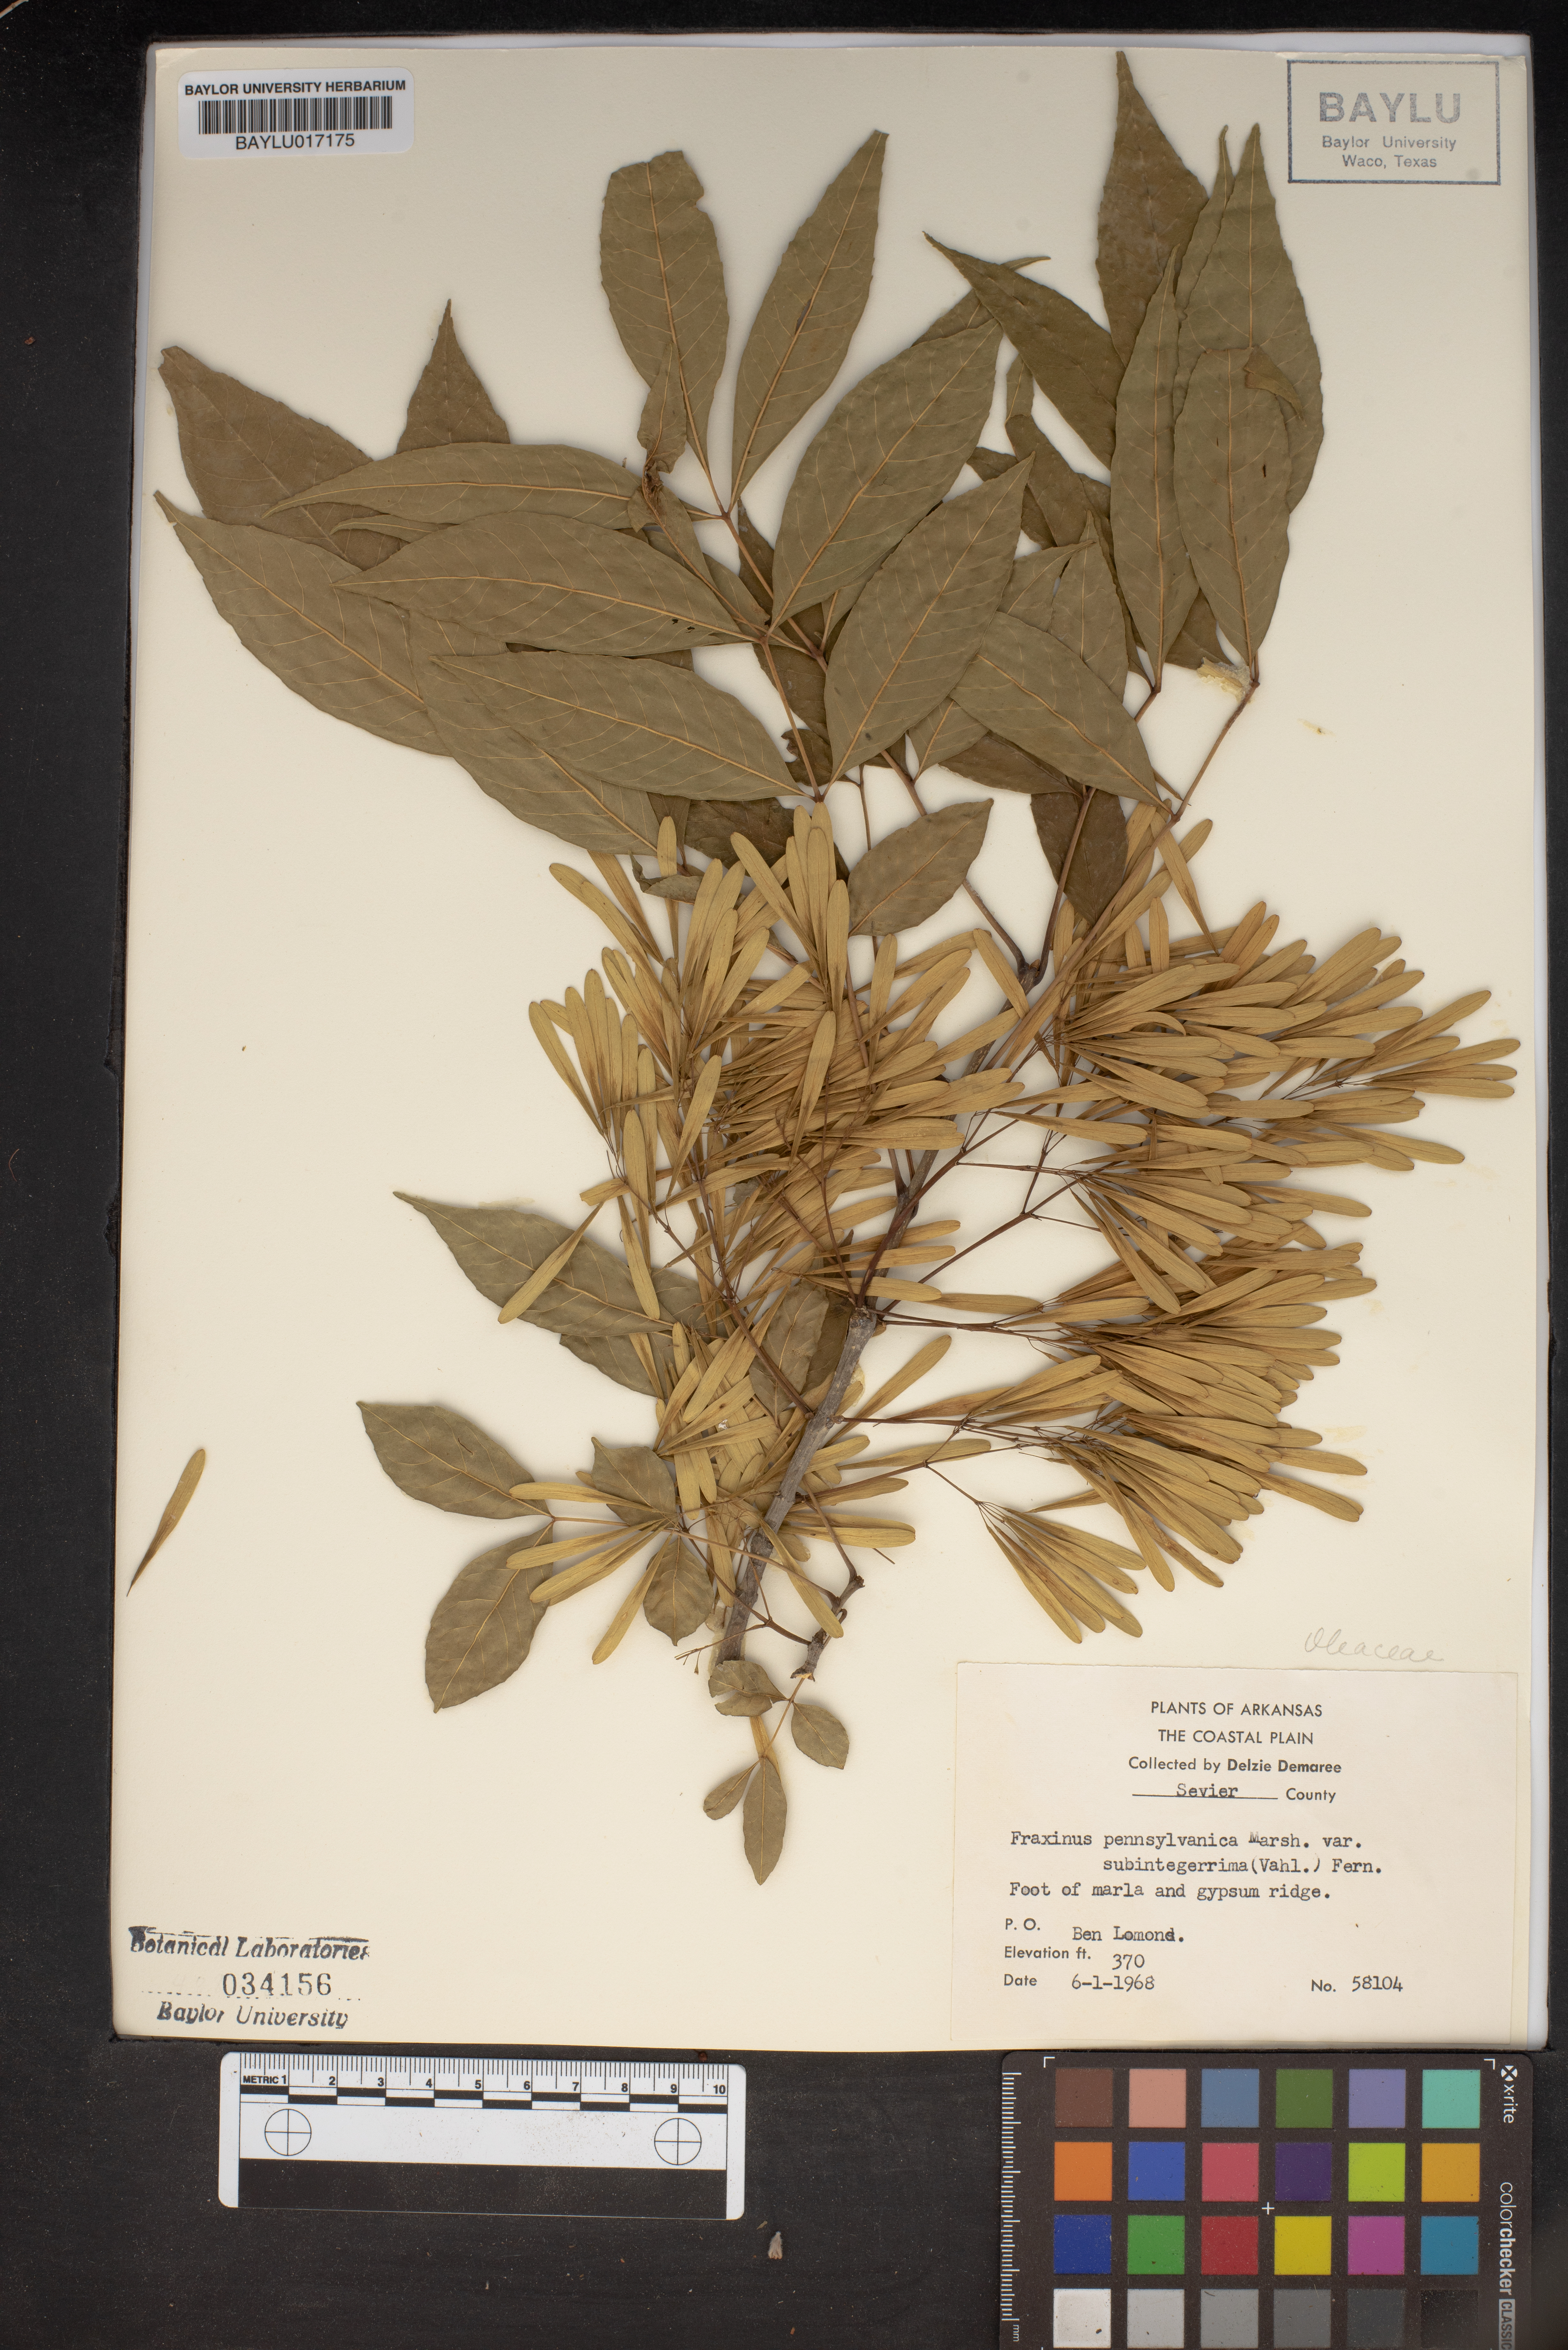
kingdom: Plantae
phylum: Tracheophyta
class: Magnoliopsida
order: Lamiales
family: Oleaceae
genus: Fraxinus
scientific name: Fraxinus pennsylvanica
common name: Green ash
